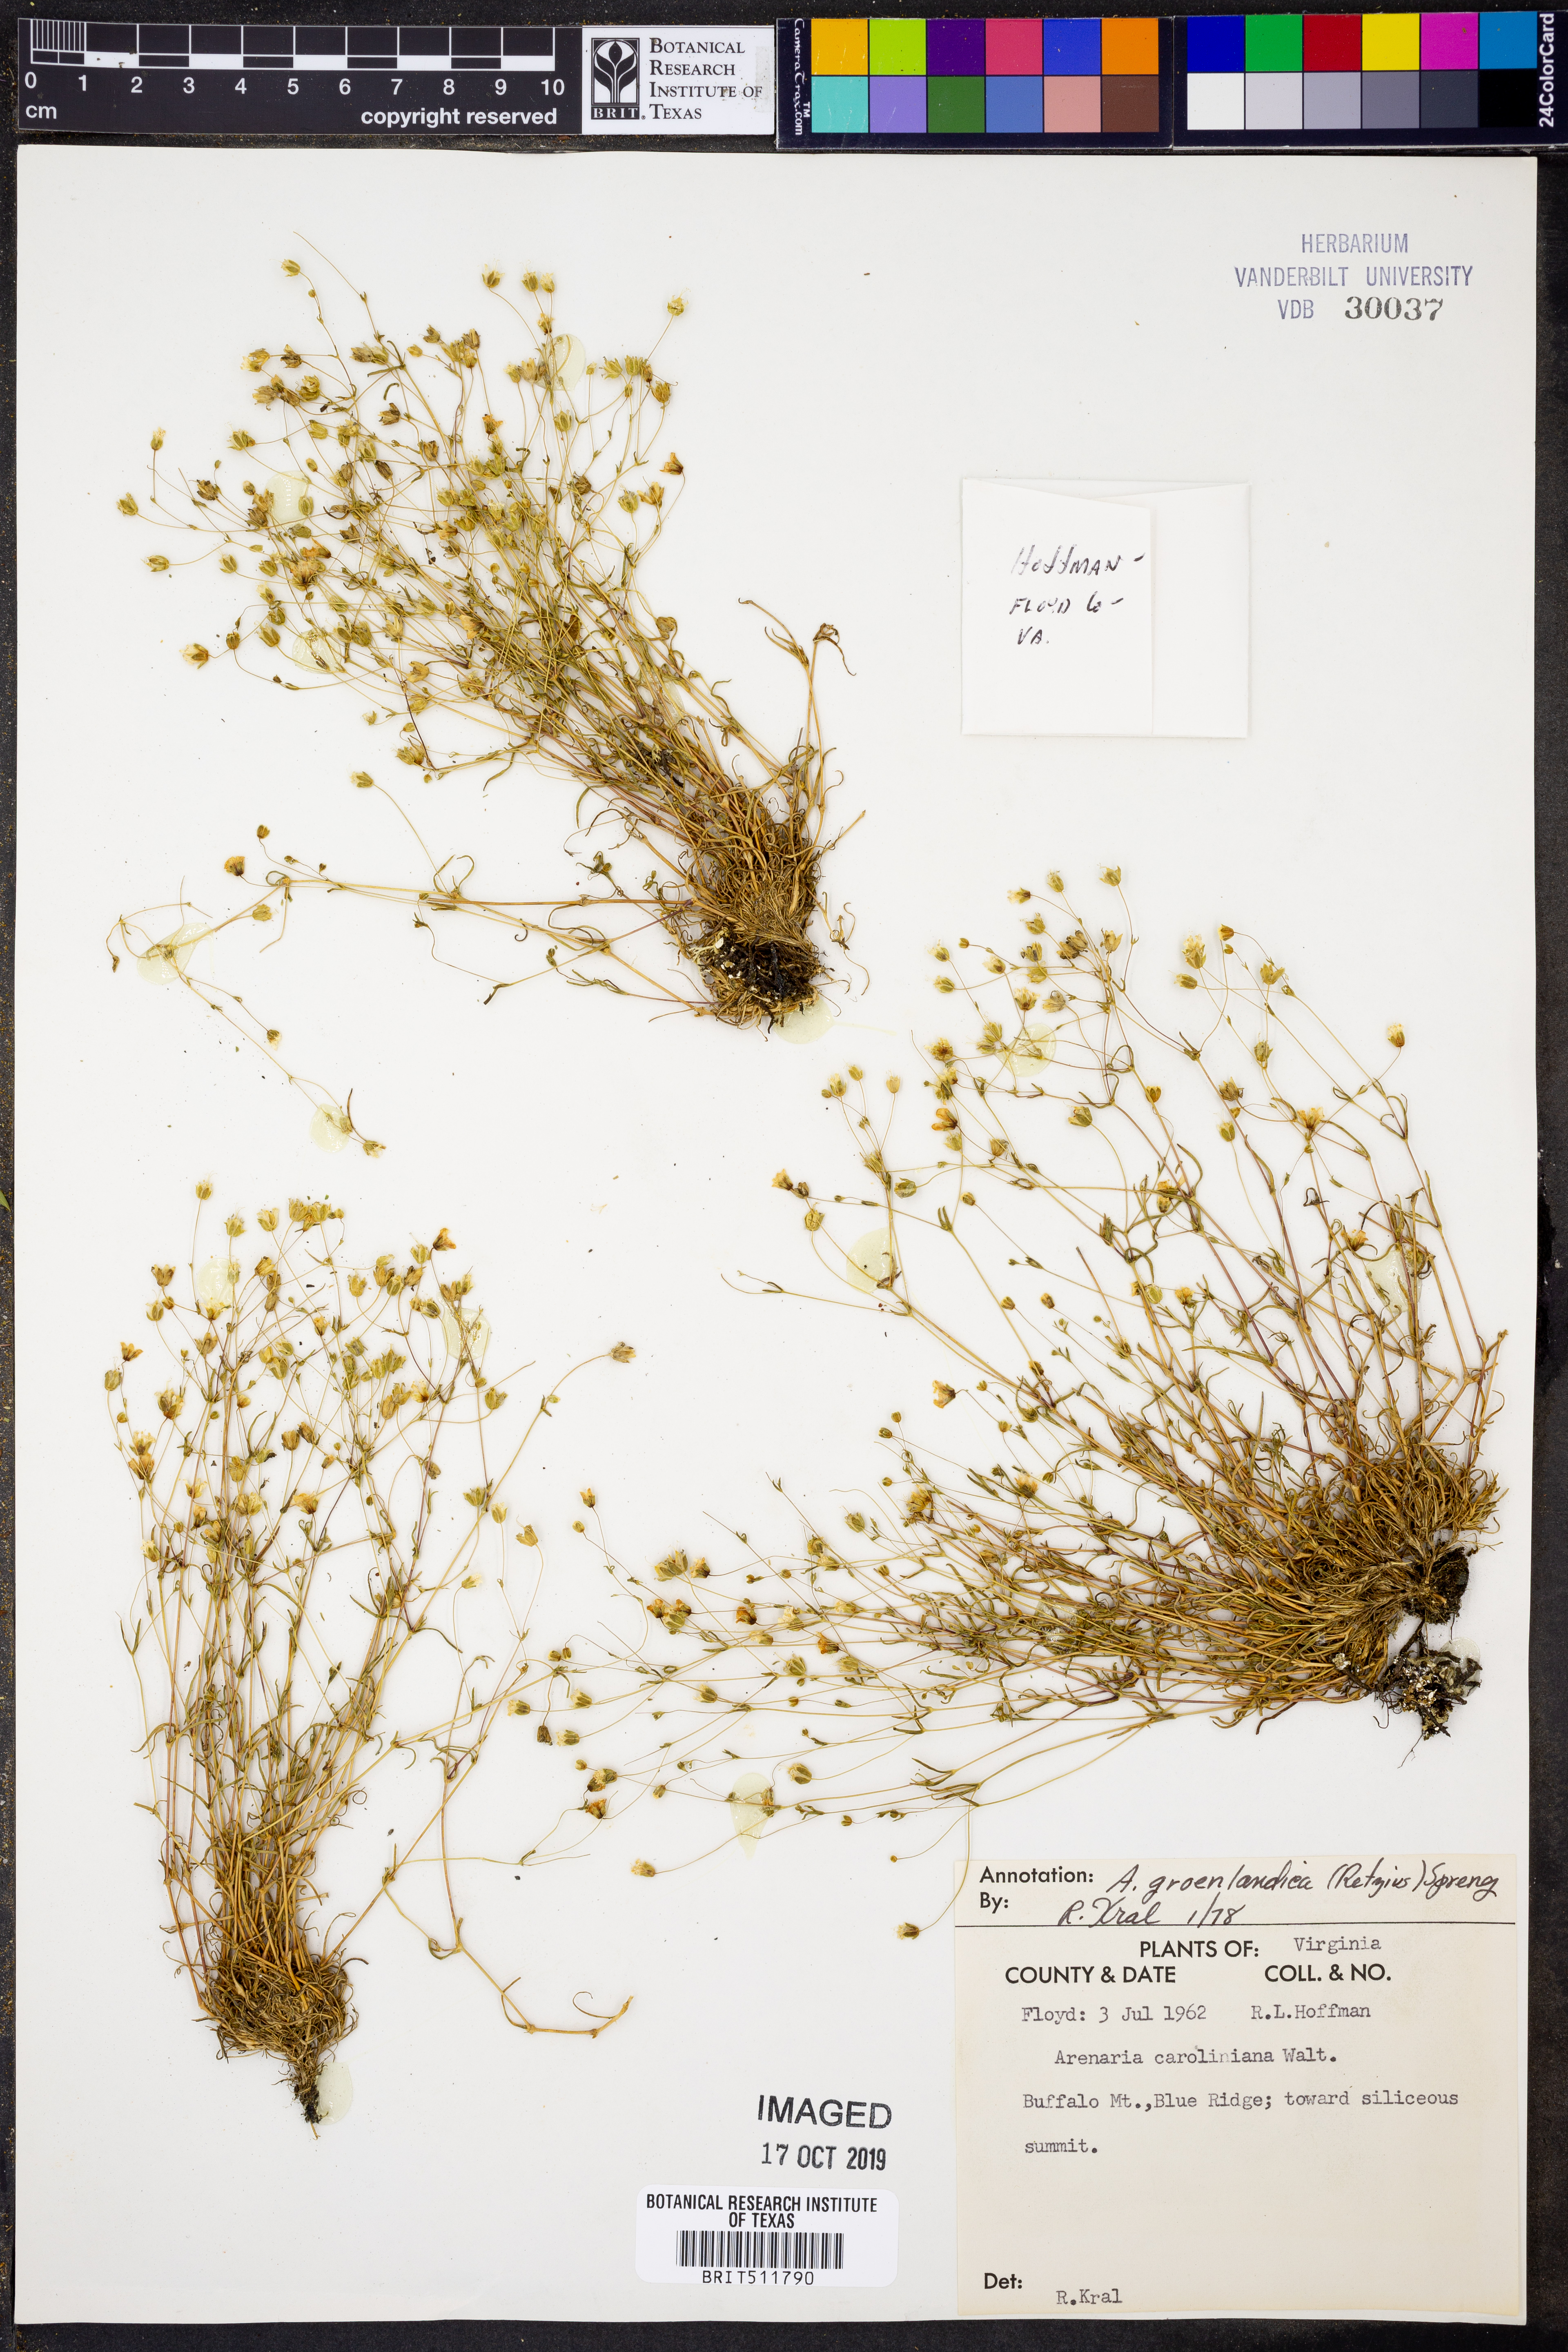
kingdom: Plantae
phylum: Tracheophyta
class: Magnoliopsida
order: Caryophyllales
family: Caryophyllaceae
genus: Geocarpon
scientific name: Geocarpon groenlandicum
